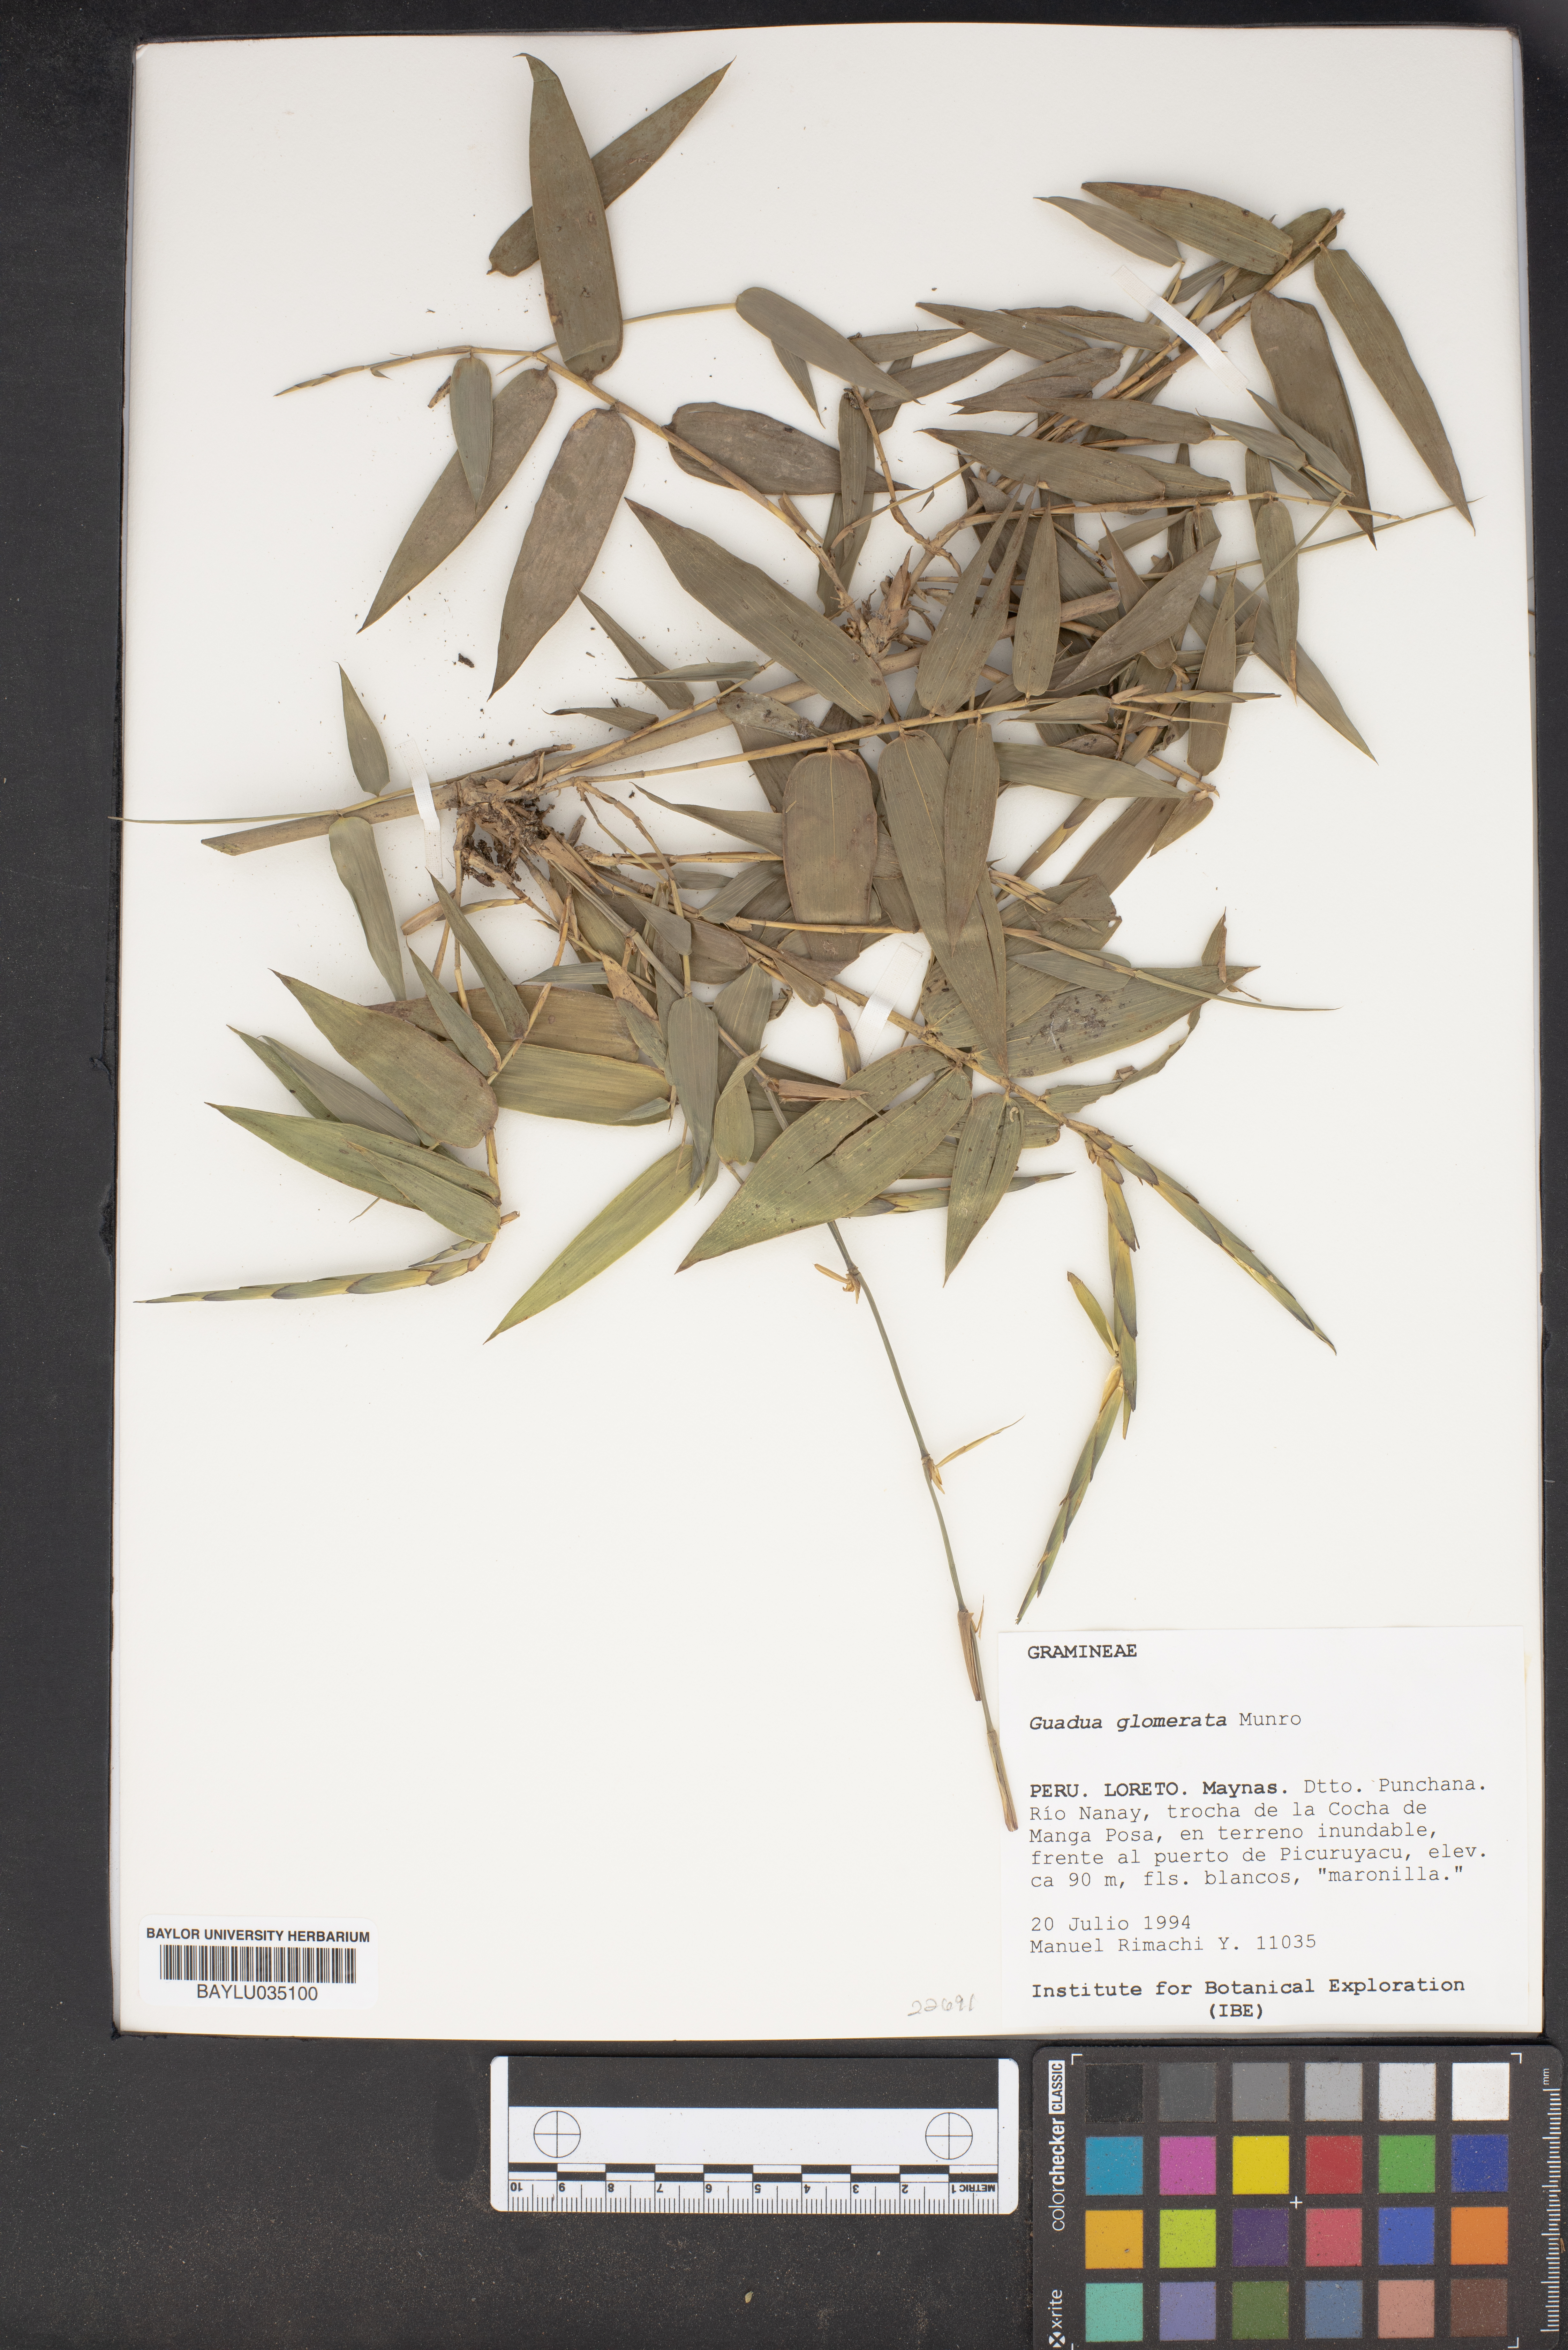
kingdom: Plantae
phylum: Tracheophyta
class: Liliopsida
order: Poales
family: Poaceae
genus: Guadua
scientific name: Guadua glomerata
